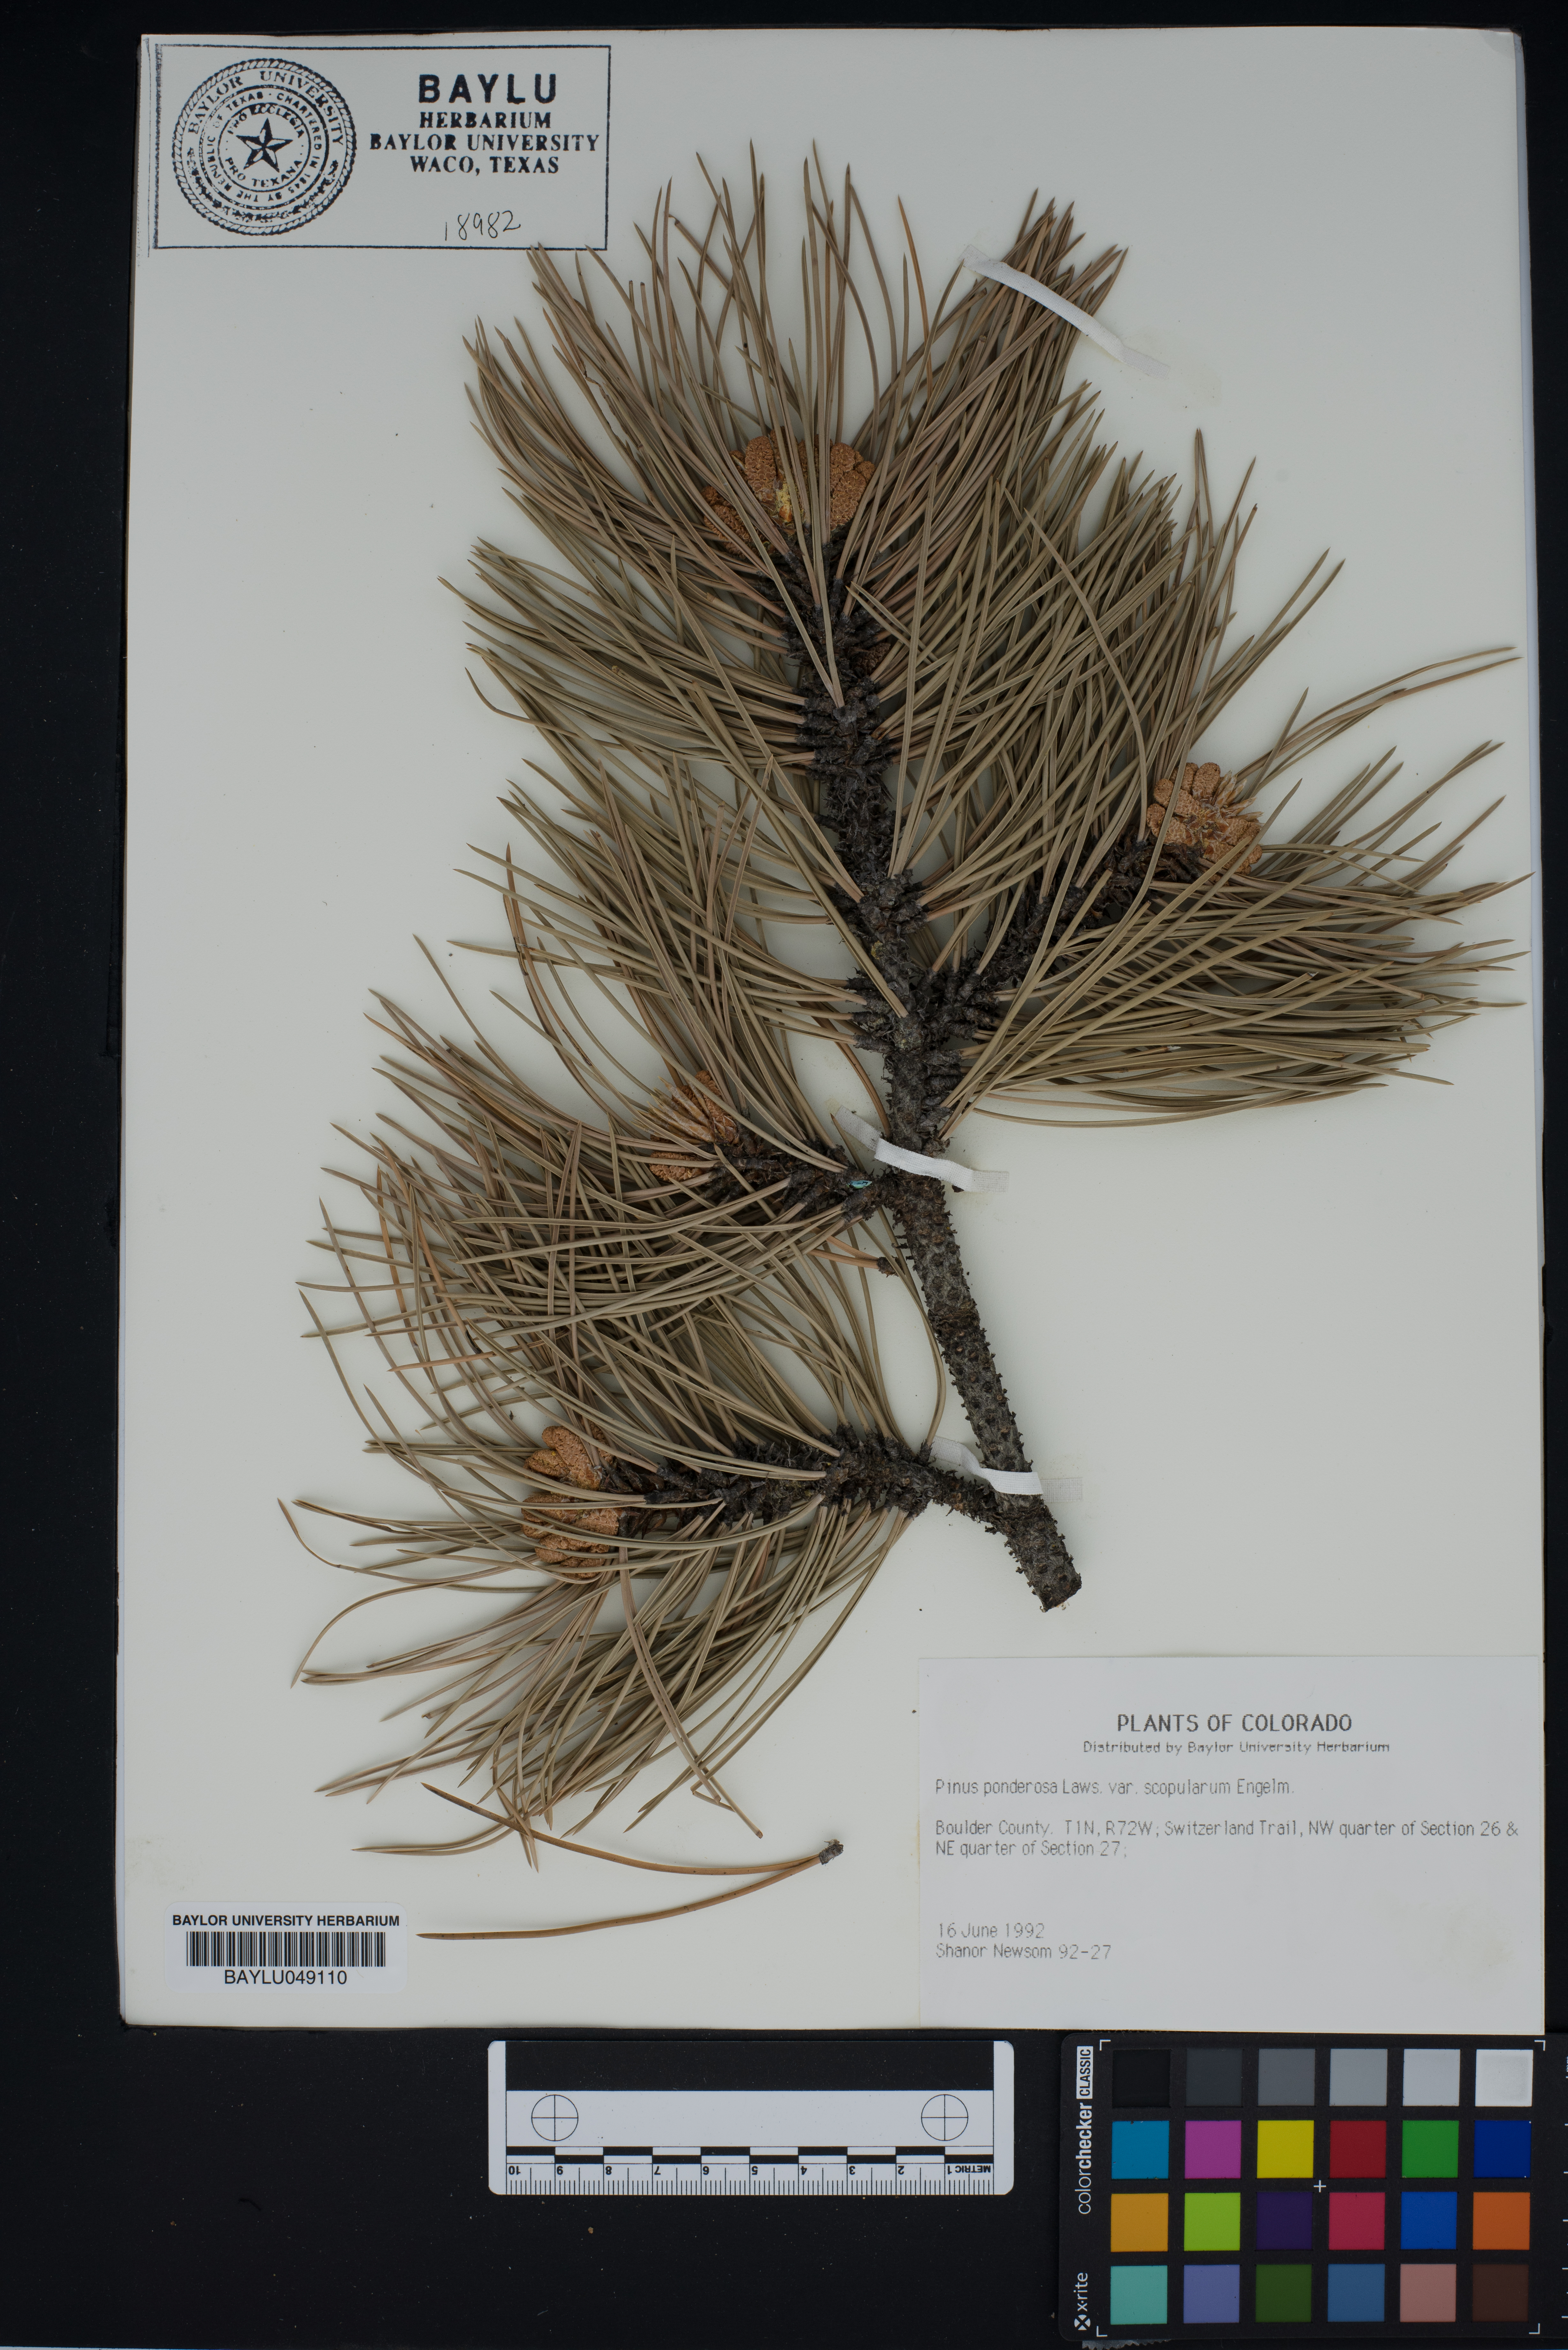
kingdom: Plantae
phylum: Tracheophyta
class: Pinopsida
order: Pinales
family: Pinaceae
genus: Pinus
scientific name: Pinus ponderosa
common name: Western yellow-pine
